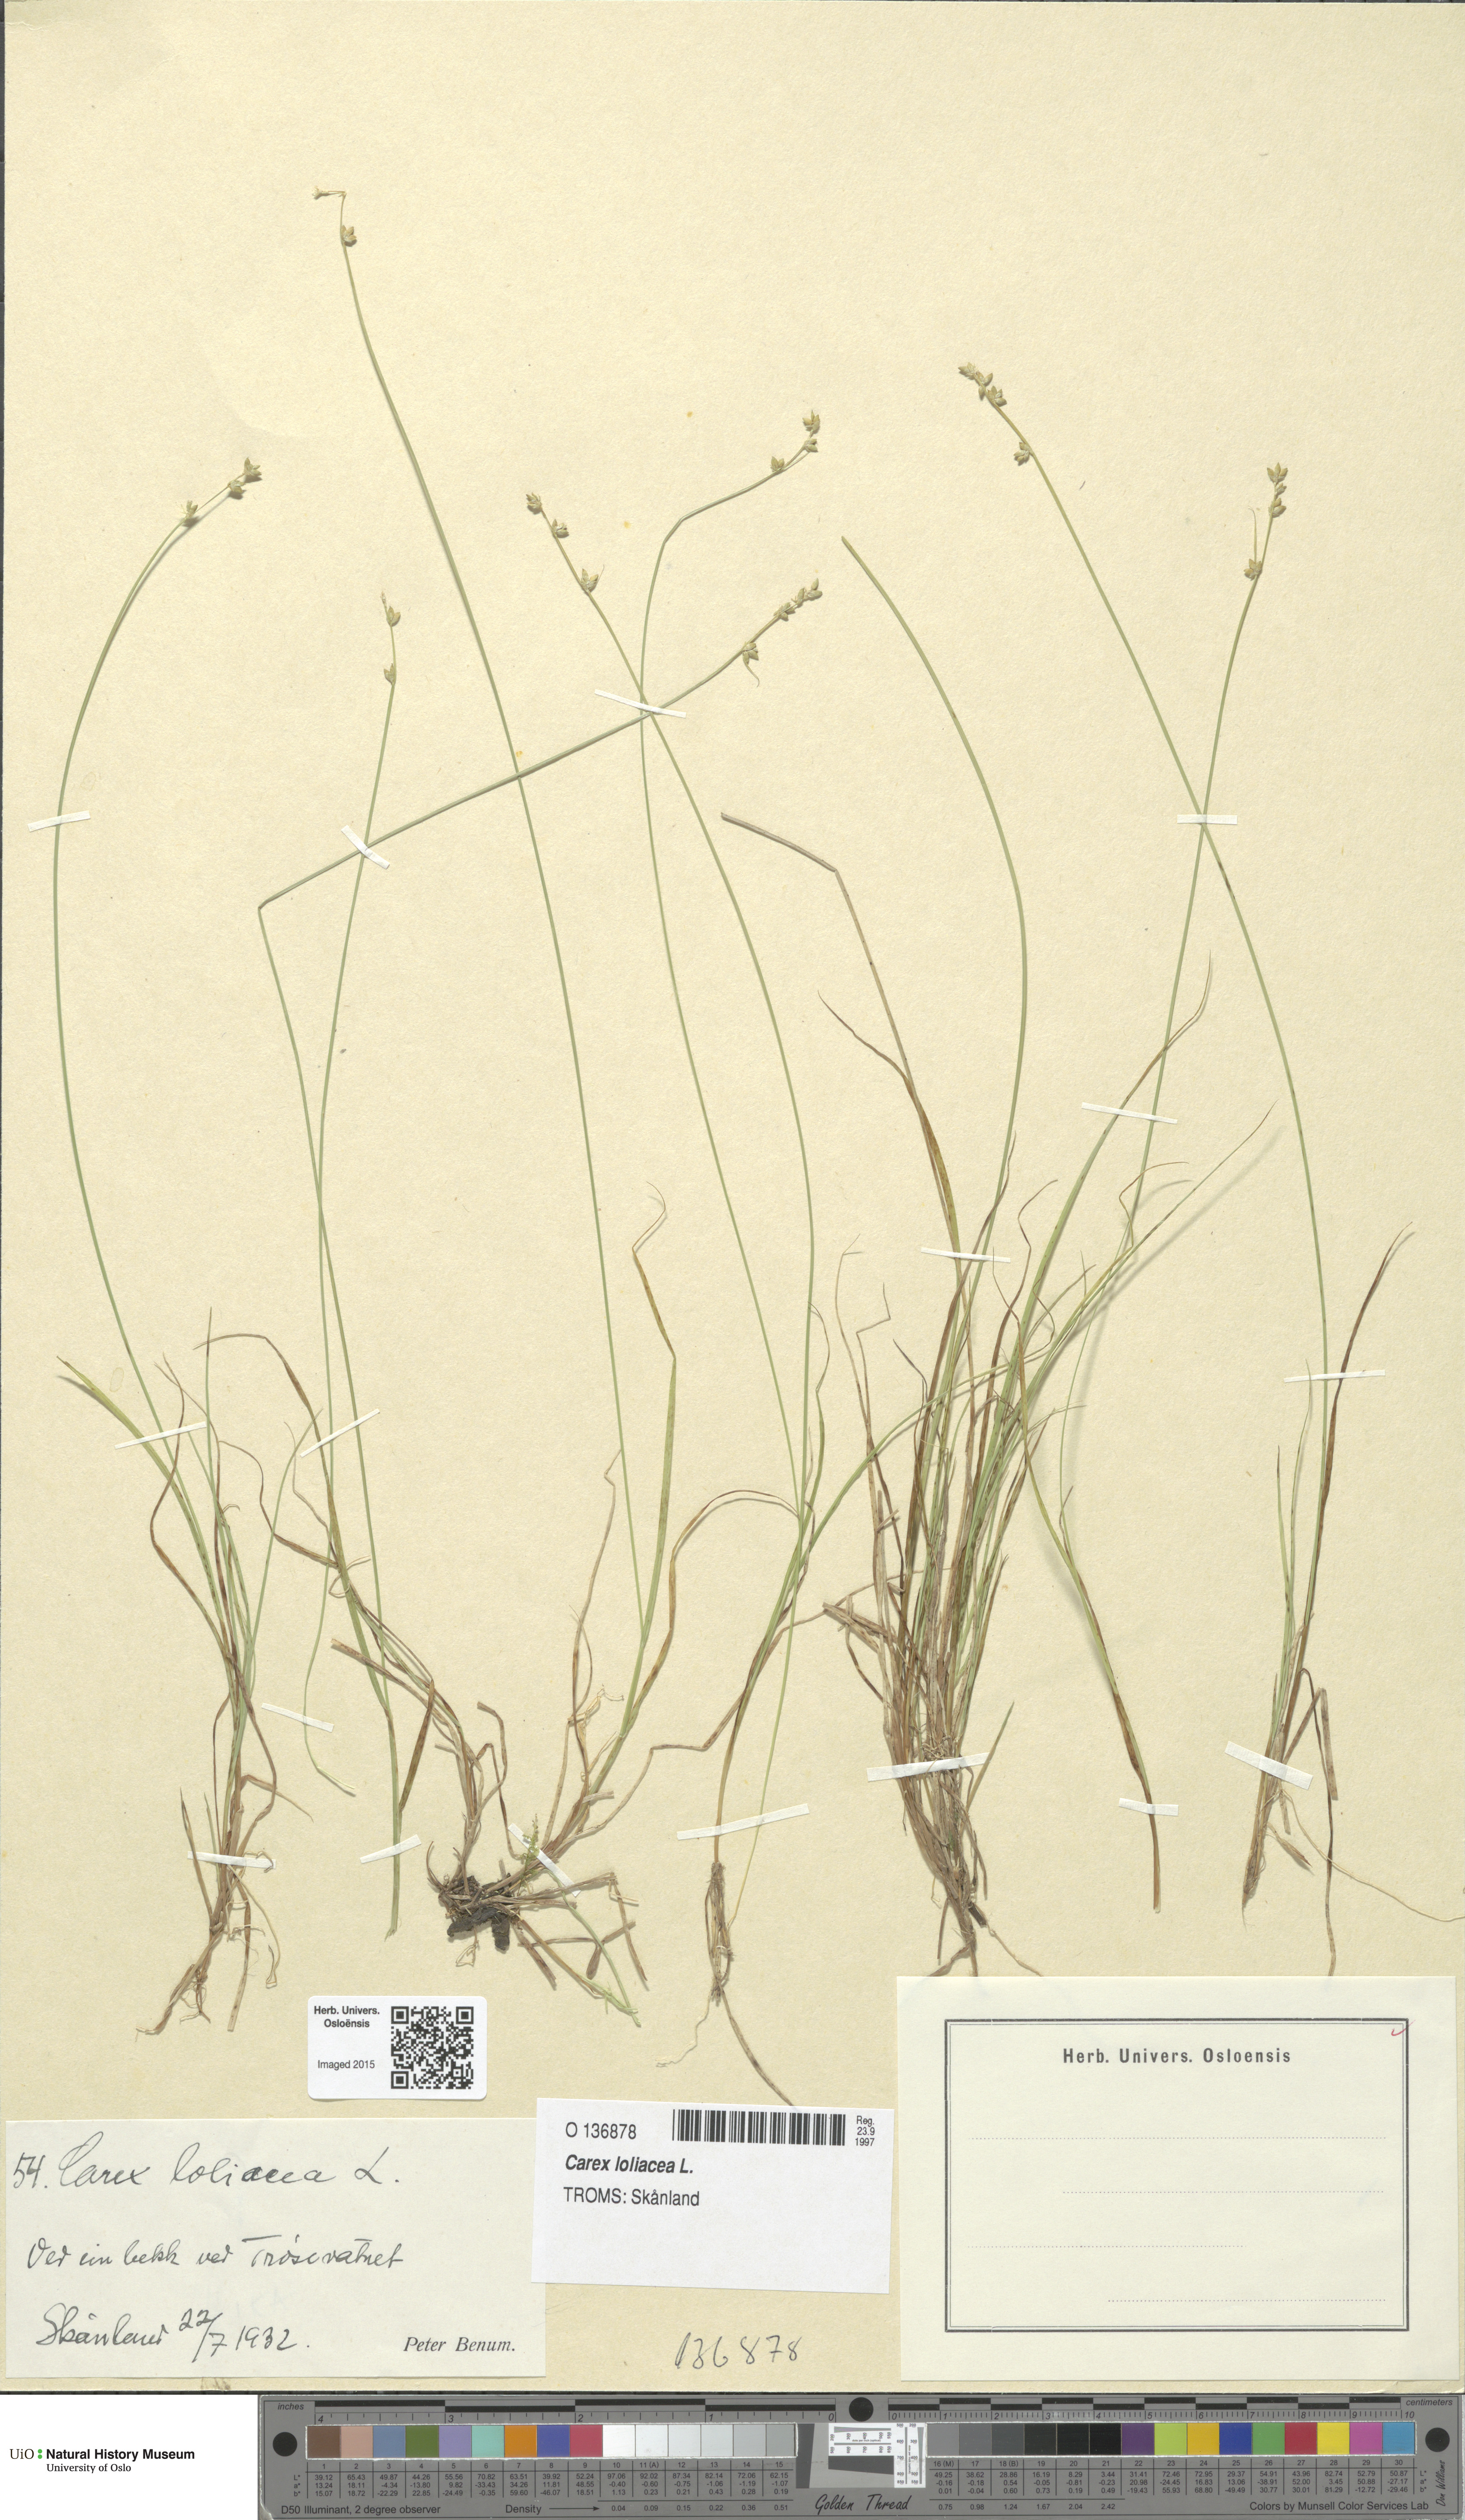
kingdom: Plantae
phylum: Tracheophyta
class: Liliopsida
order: Poales
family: Cyperaceae
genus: Carex
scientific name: Carex loliacea
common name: Ryegrass sedge
